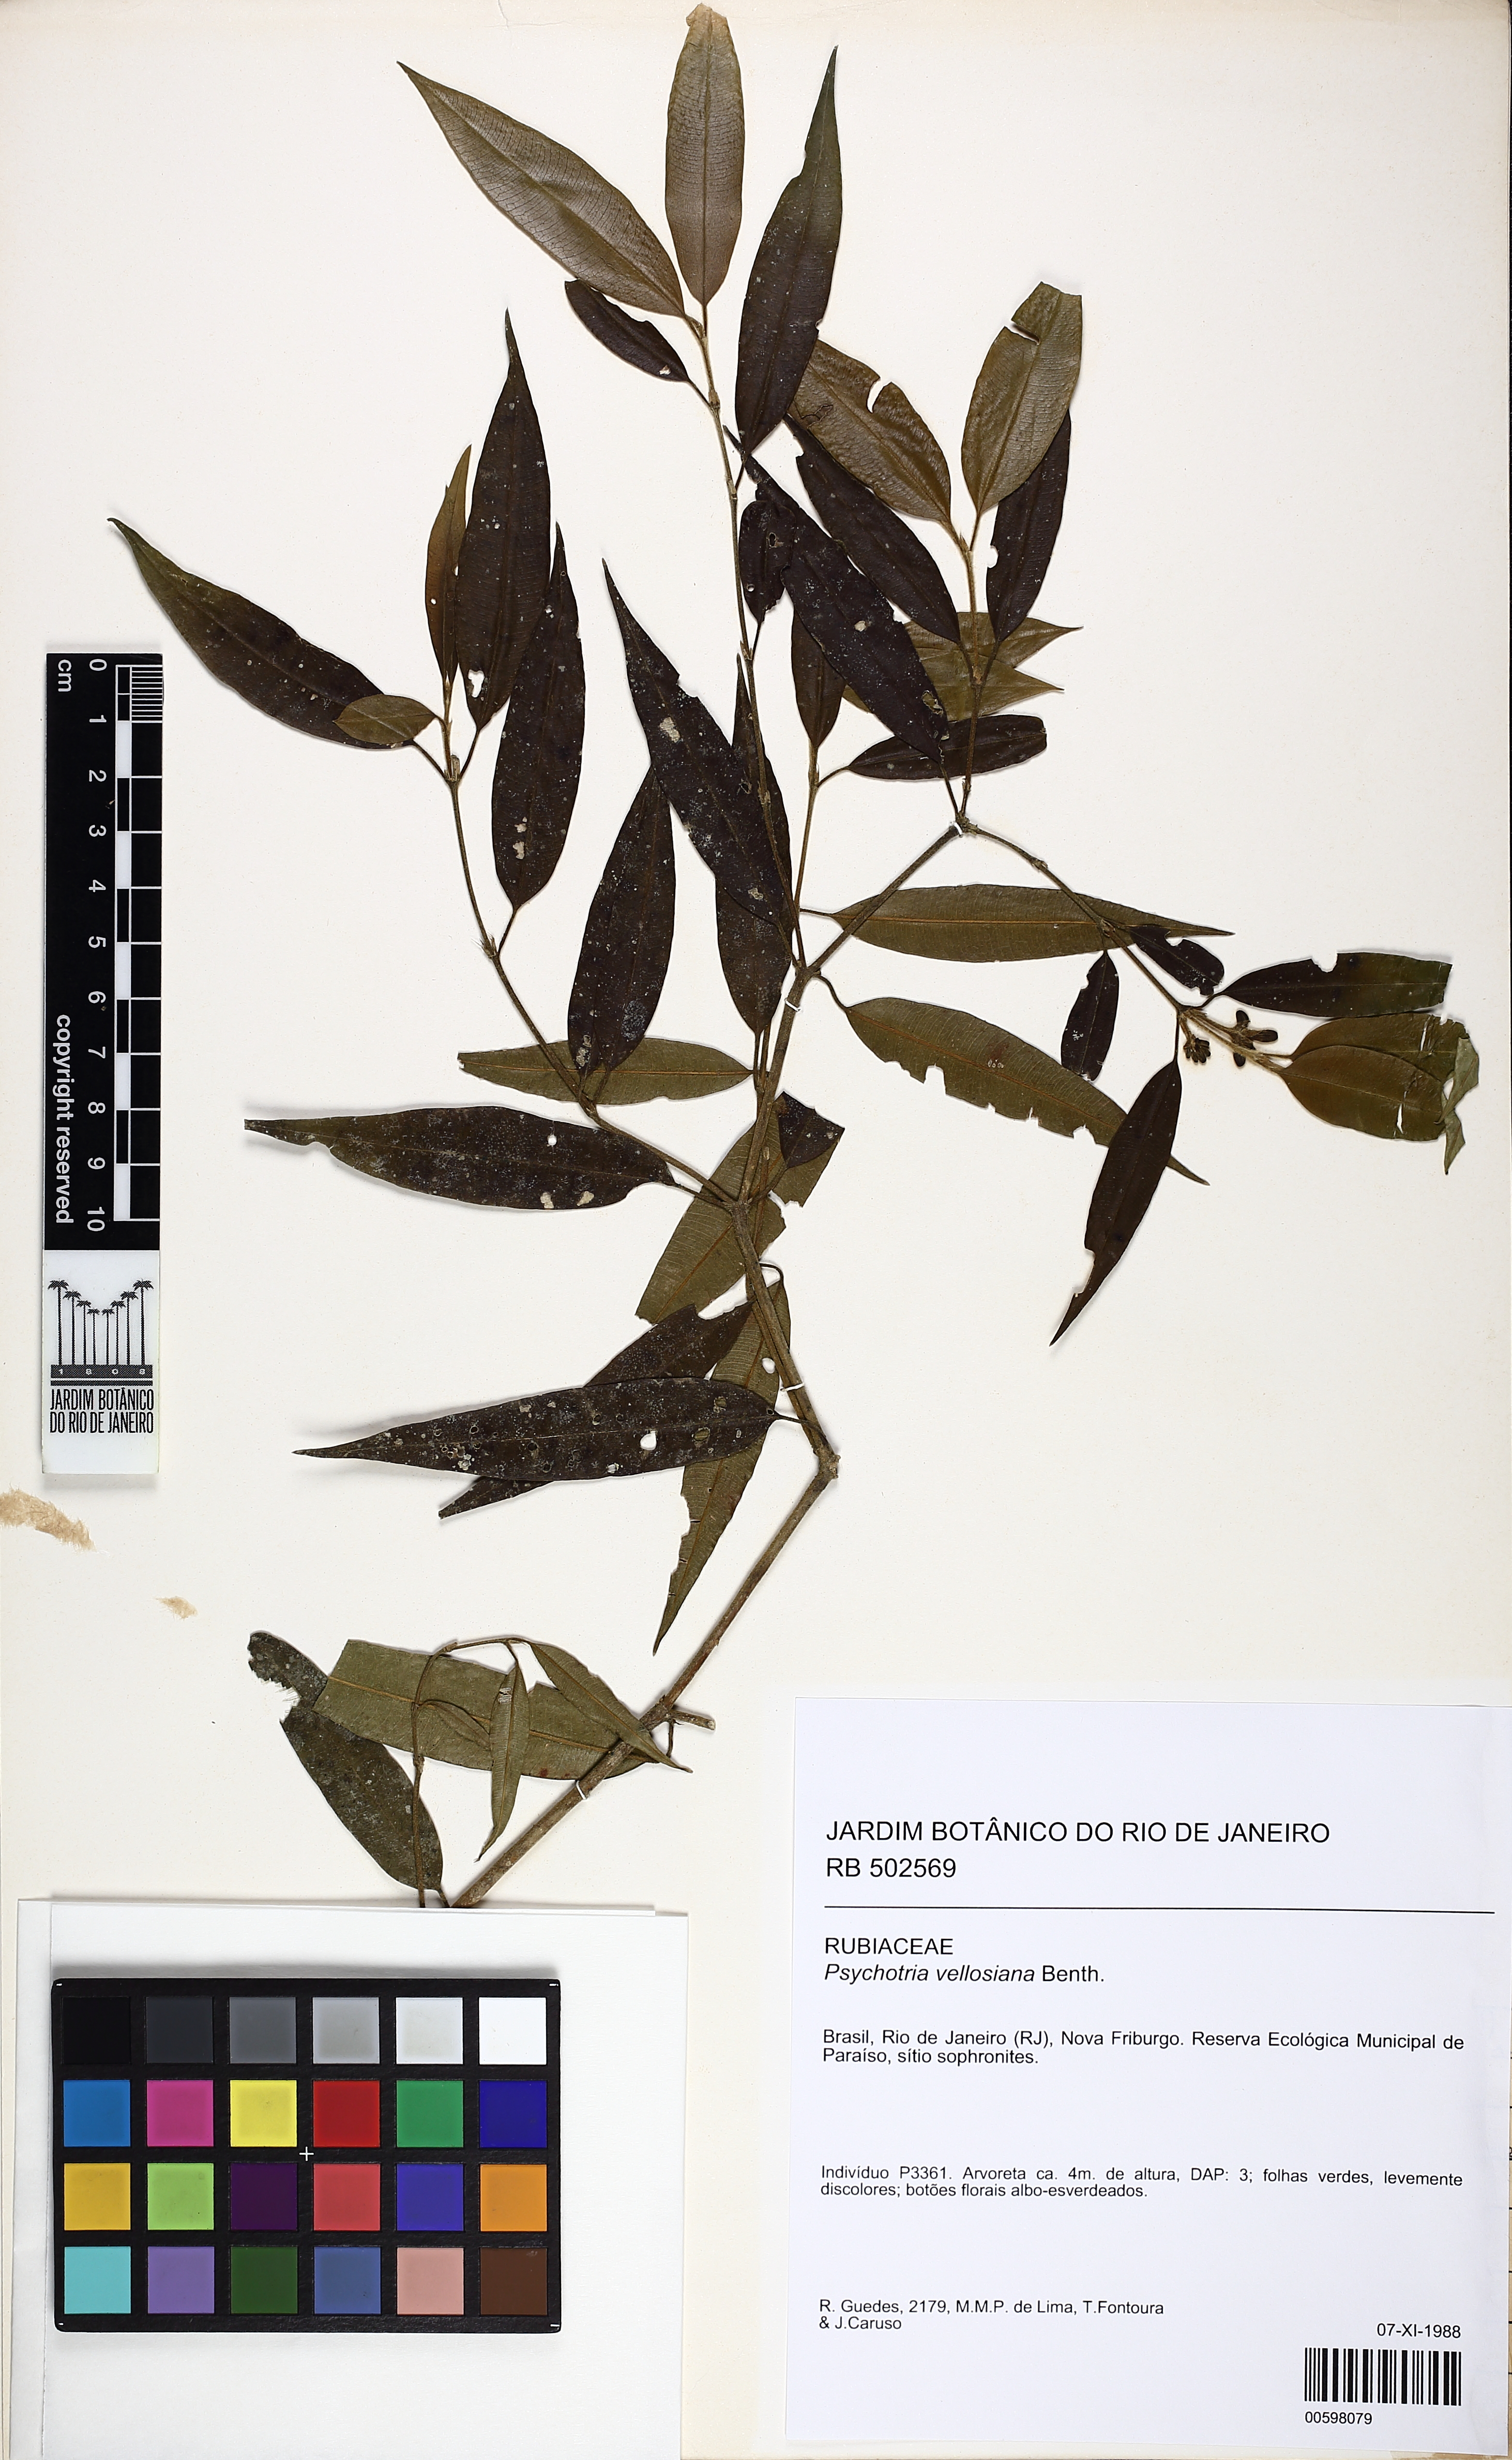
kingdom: Plantae
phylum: Tracheophyta
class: Magnoliopsida
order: Gentianales
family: Rubiaceae
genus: Palicourea
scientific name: Palicourea sessilis
